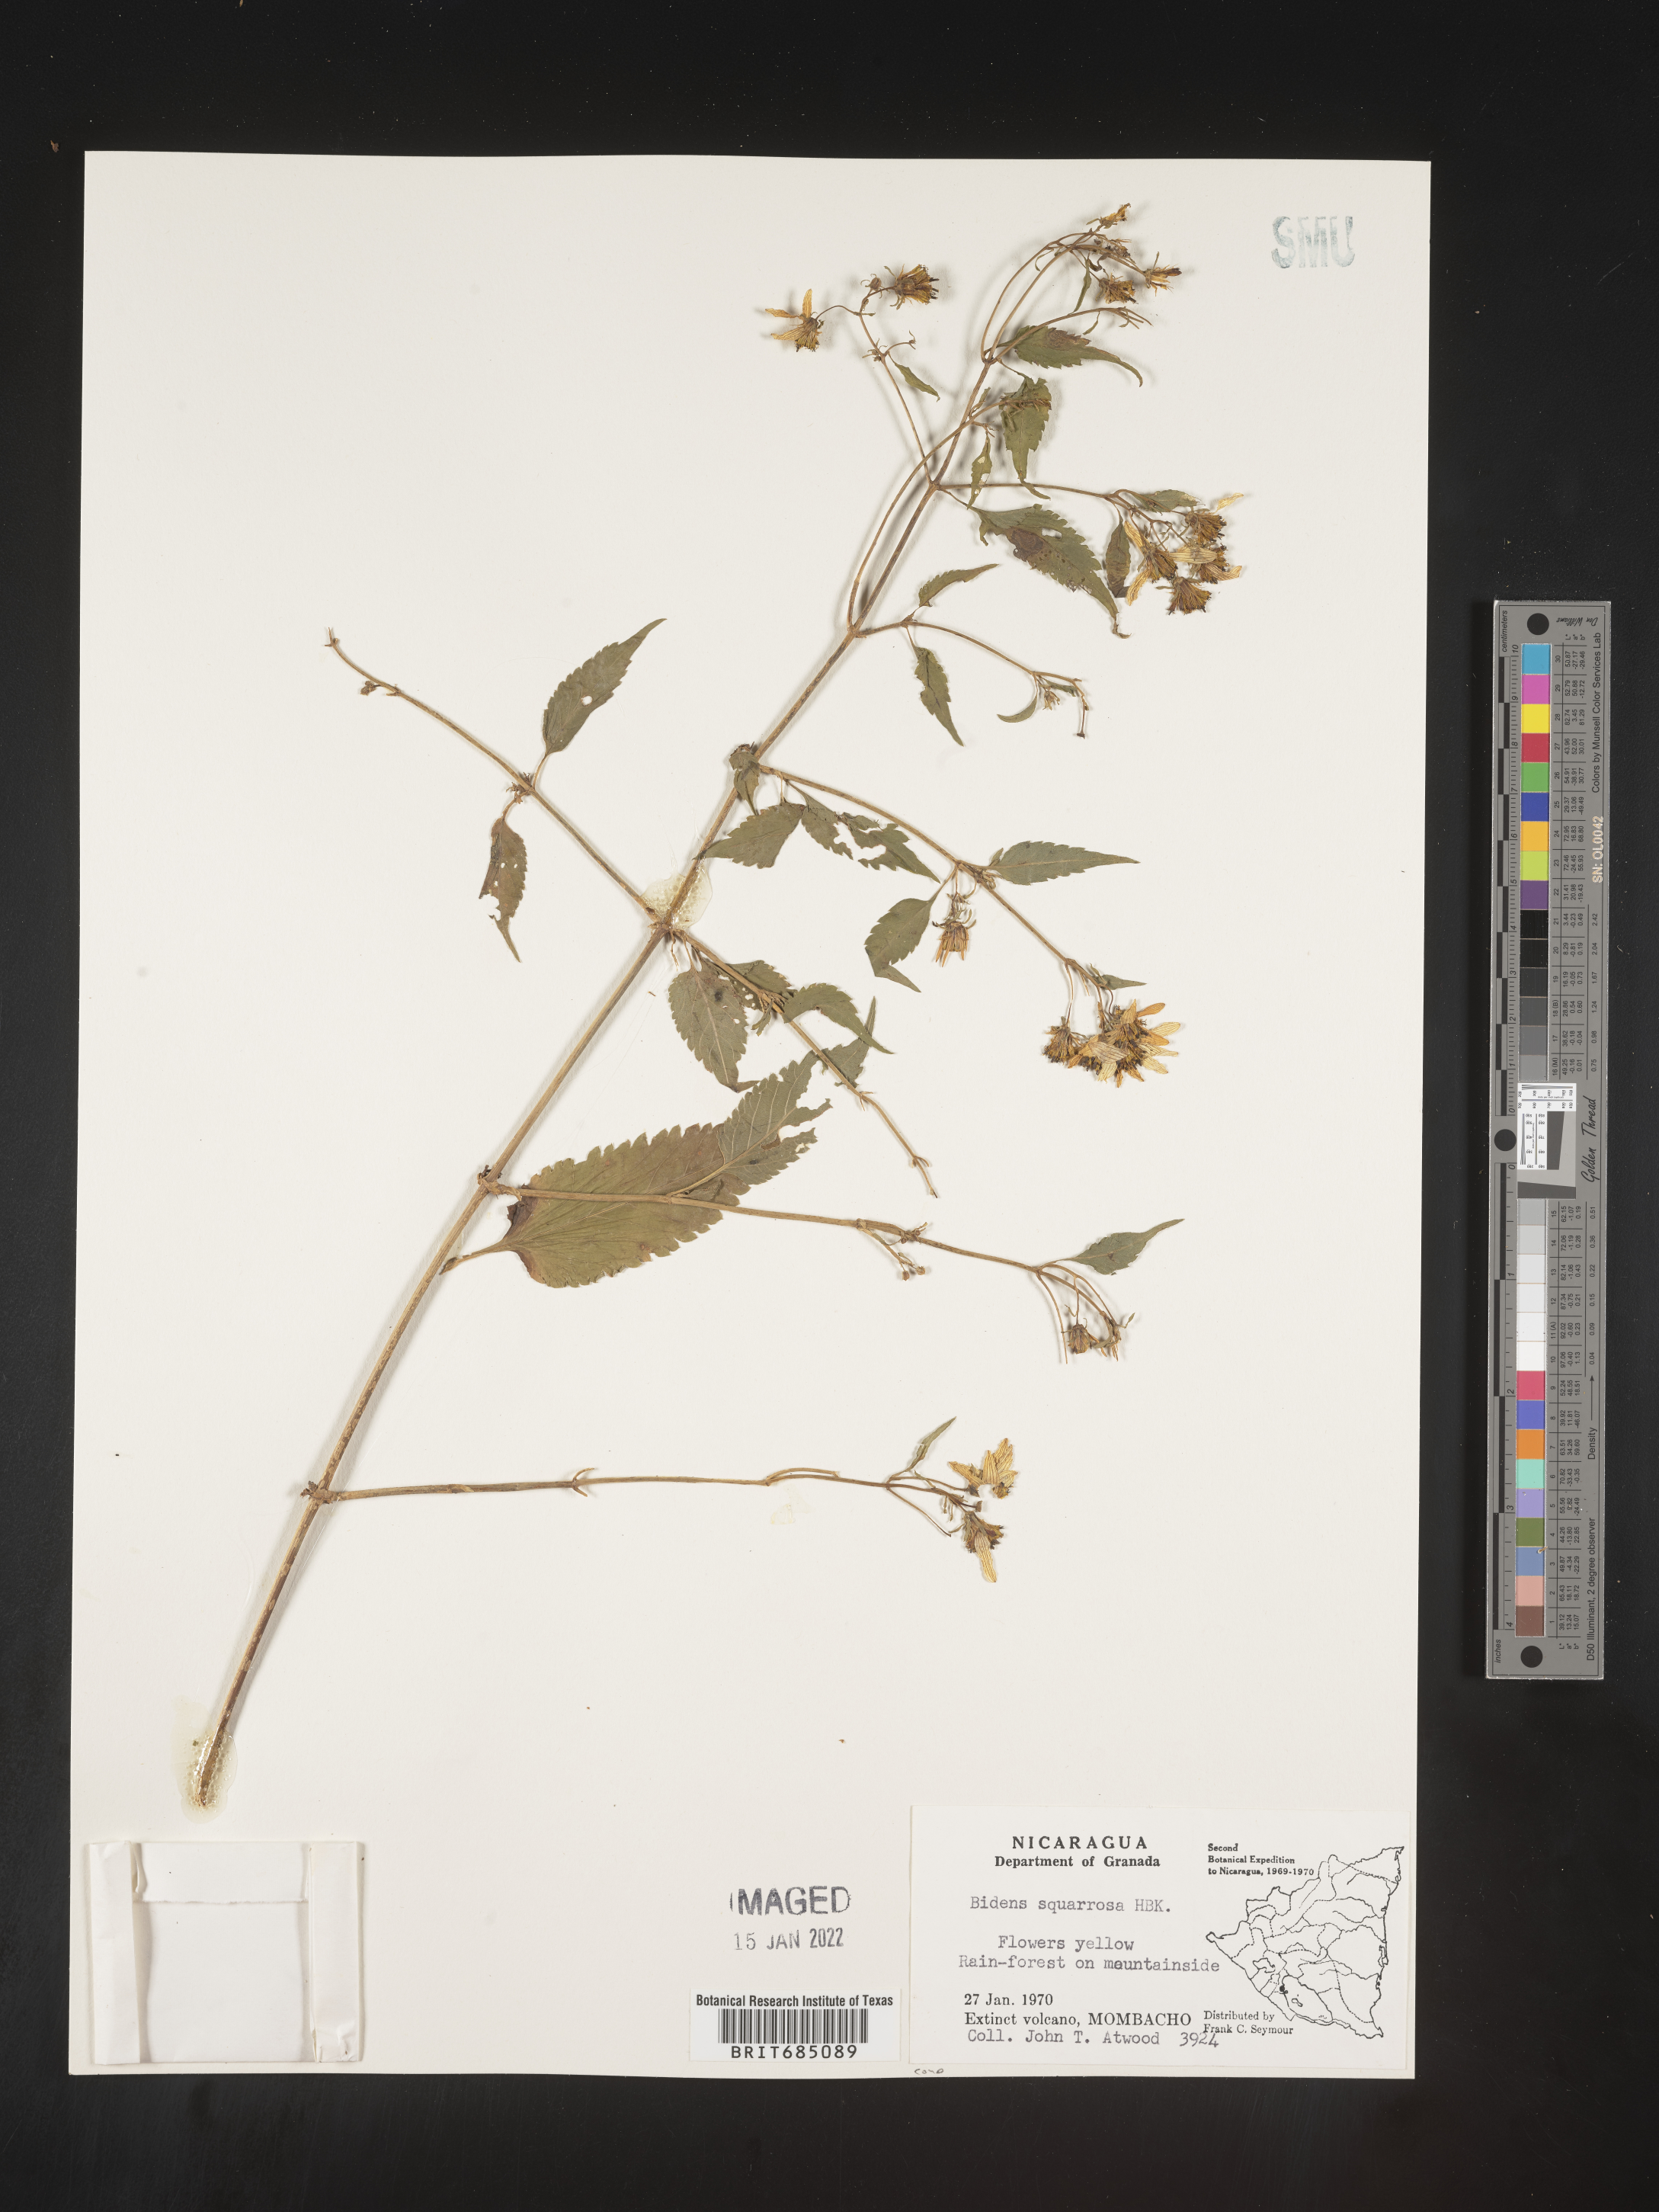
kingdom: Plantae
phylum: Tracheophyta
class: Magnoliopsida
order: Asterales
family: Asteraceae
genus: Bidens
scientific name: Bidens rubicundula
